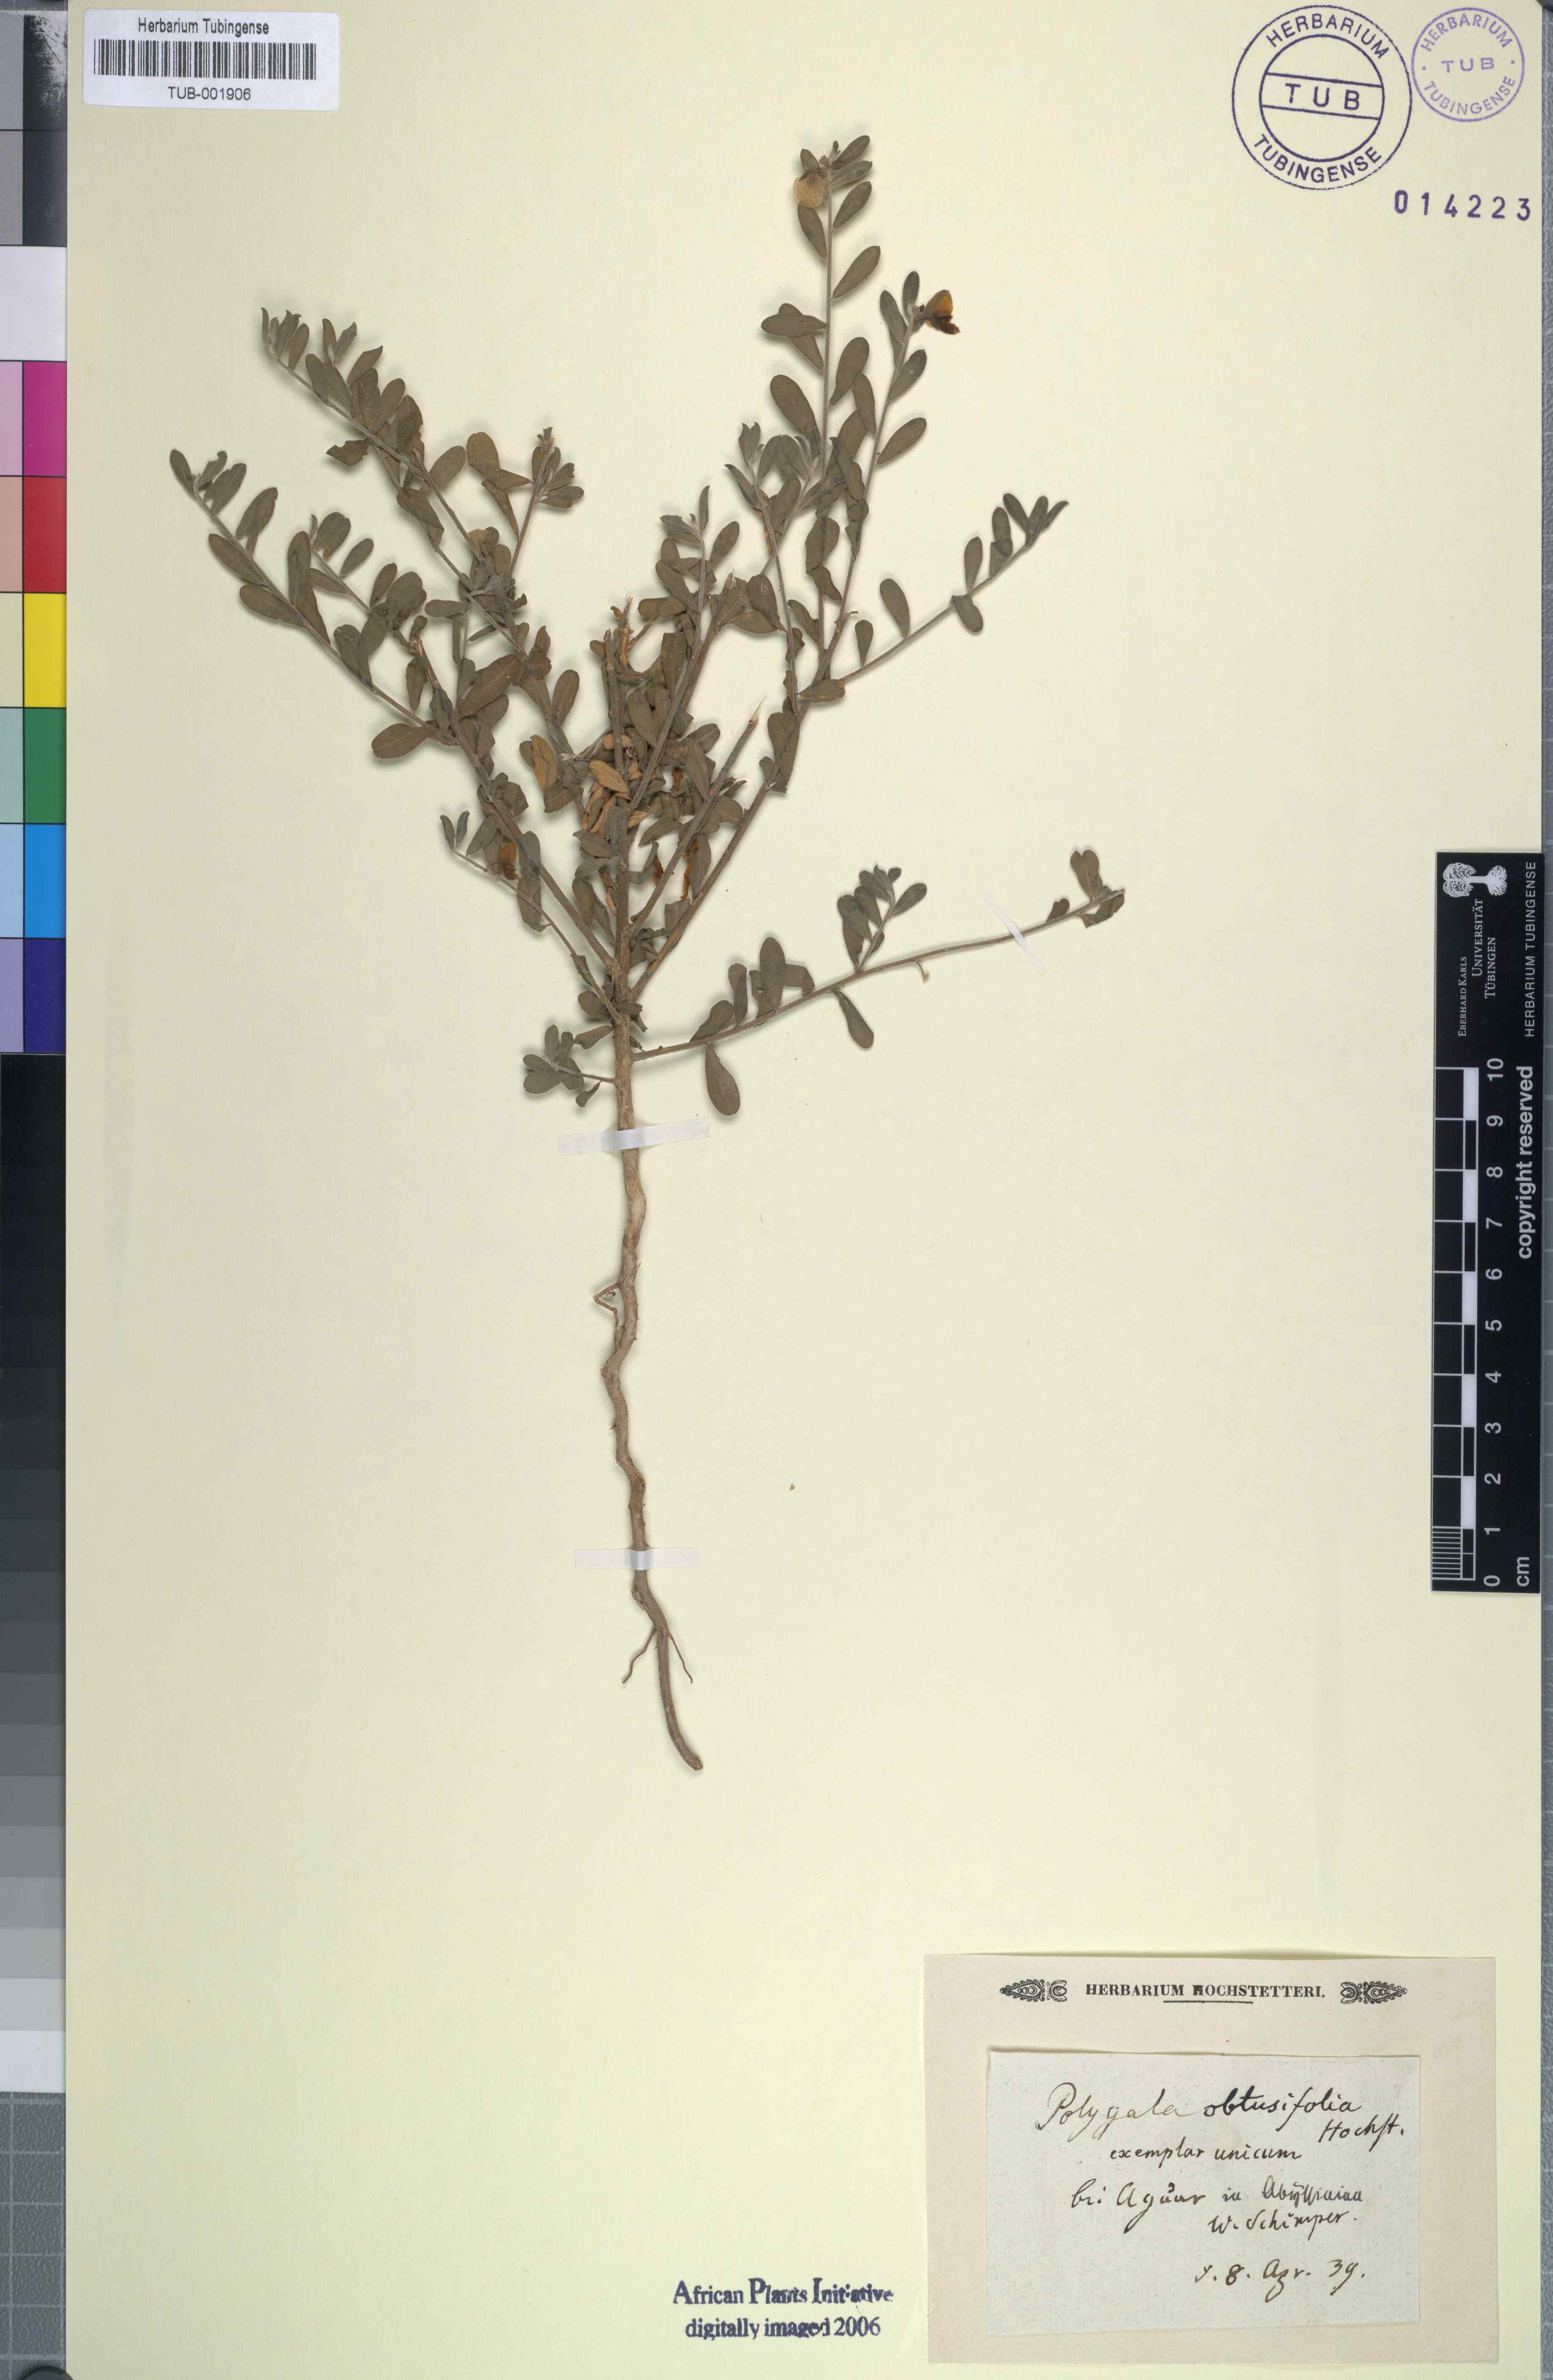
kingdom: Plantae
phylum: Tracheophyta
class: Magnoliopsida
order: Fabales
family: Polygalaceae
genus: Polygala
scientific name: Polygala
